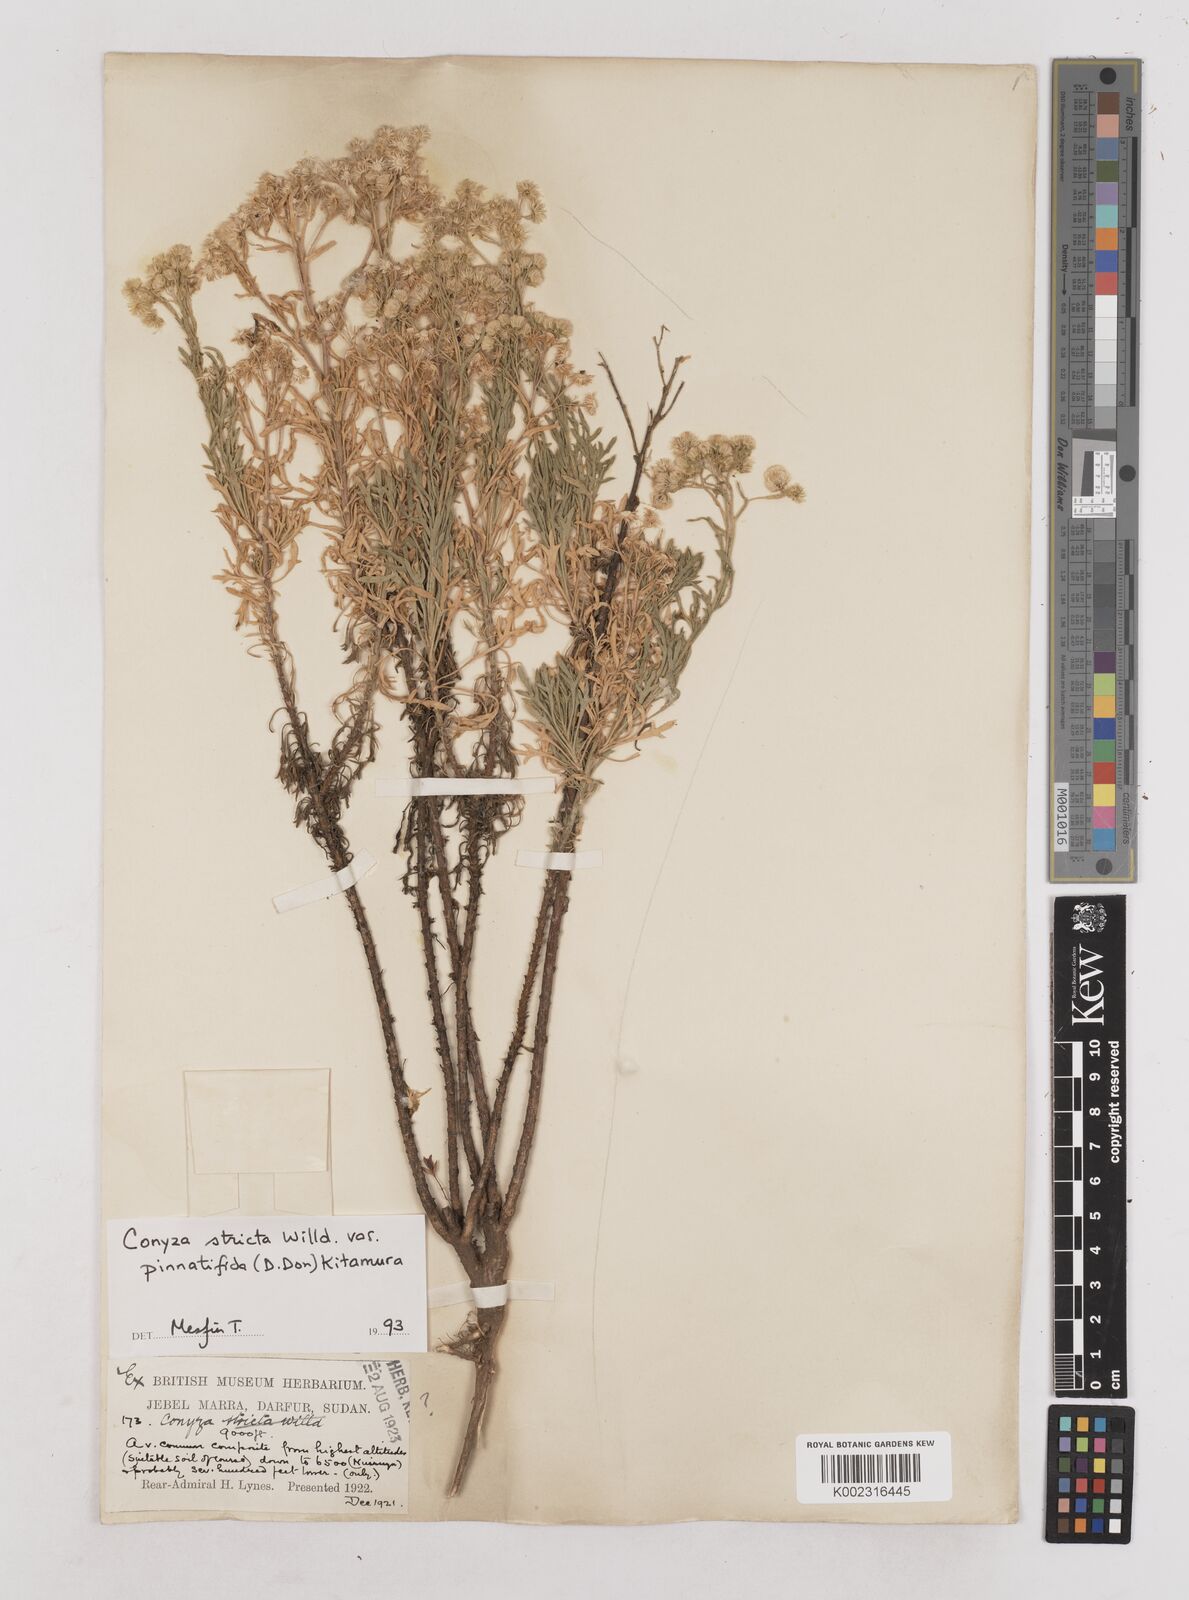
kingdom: Plantae
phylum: Tracheophyta
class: Magnoliopsida
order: Asterales
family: Asteraceae
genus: Nidorella
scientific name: Nidorella triloba
